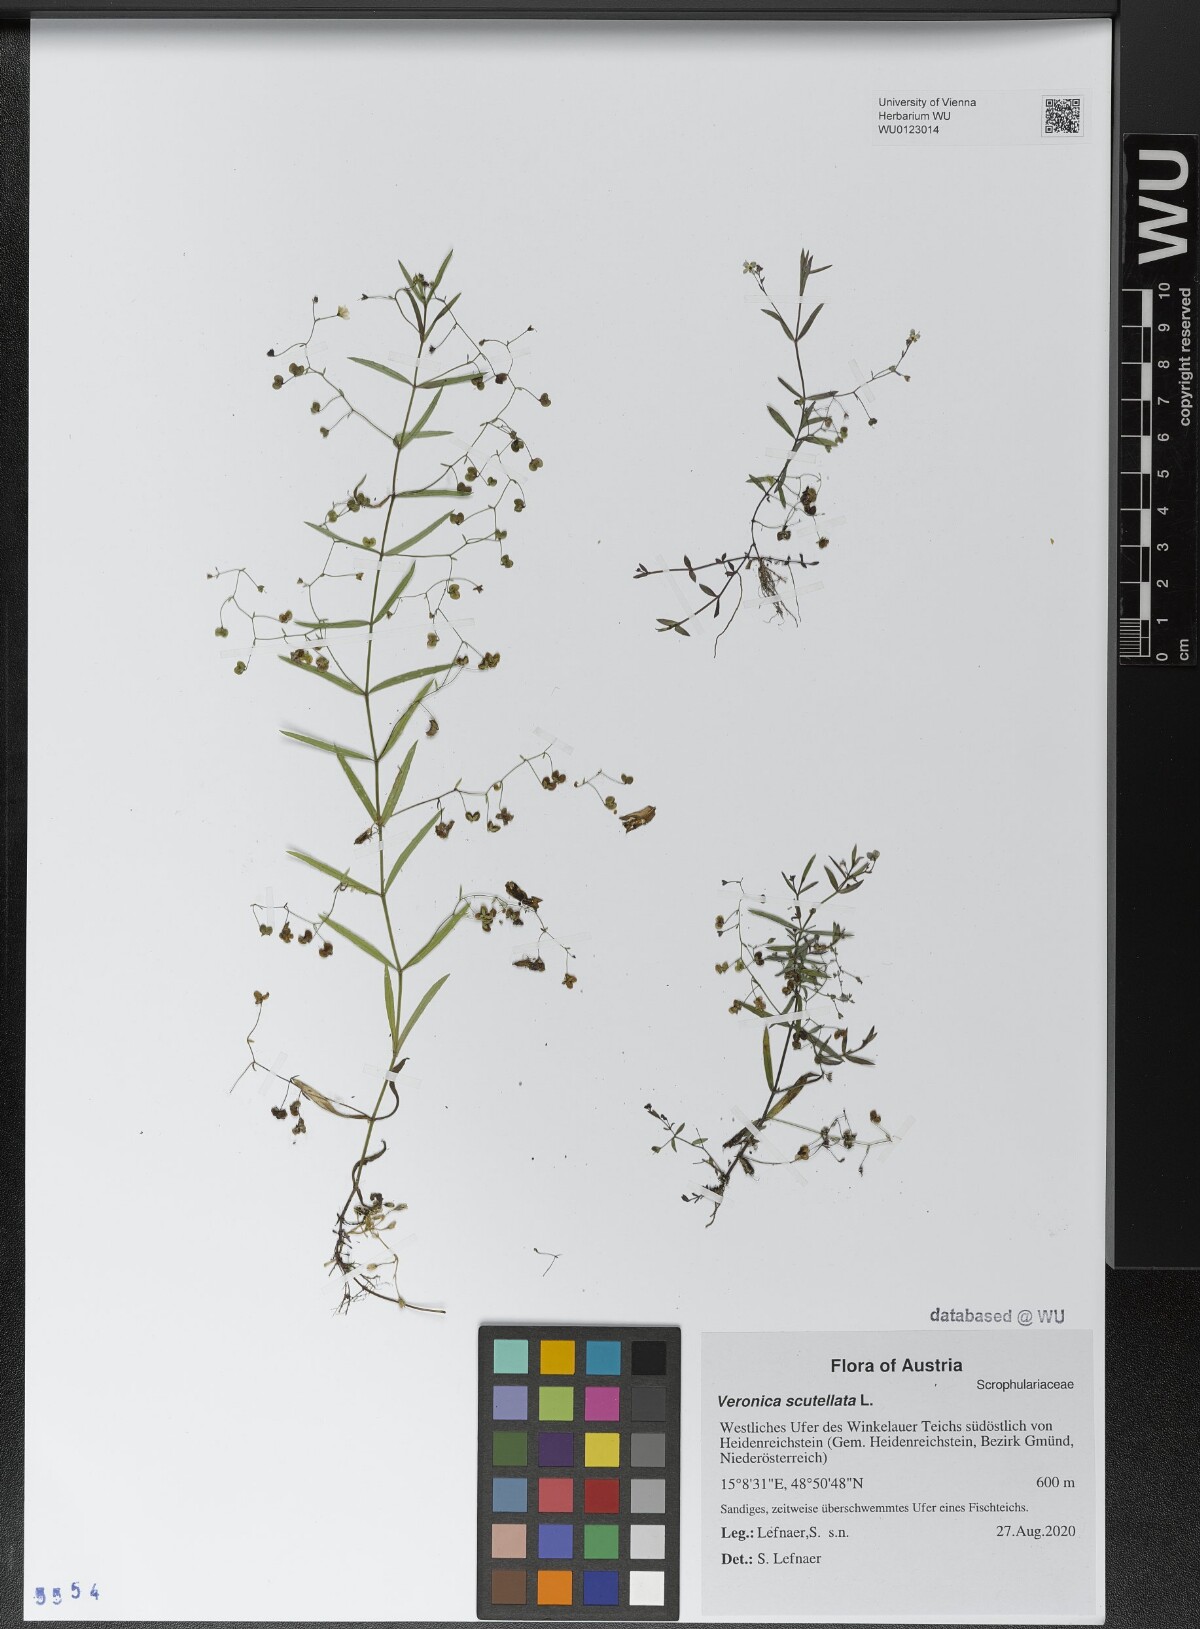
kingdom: Plantae
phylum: Tracheophyta
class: Magnoliopsida
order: Lamiales
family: Plantaginaceae
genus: Veronica
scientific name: Veronica scutellata
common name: Marsh speedwell
